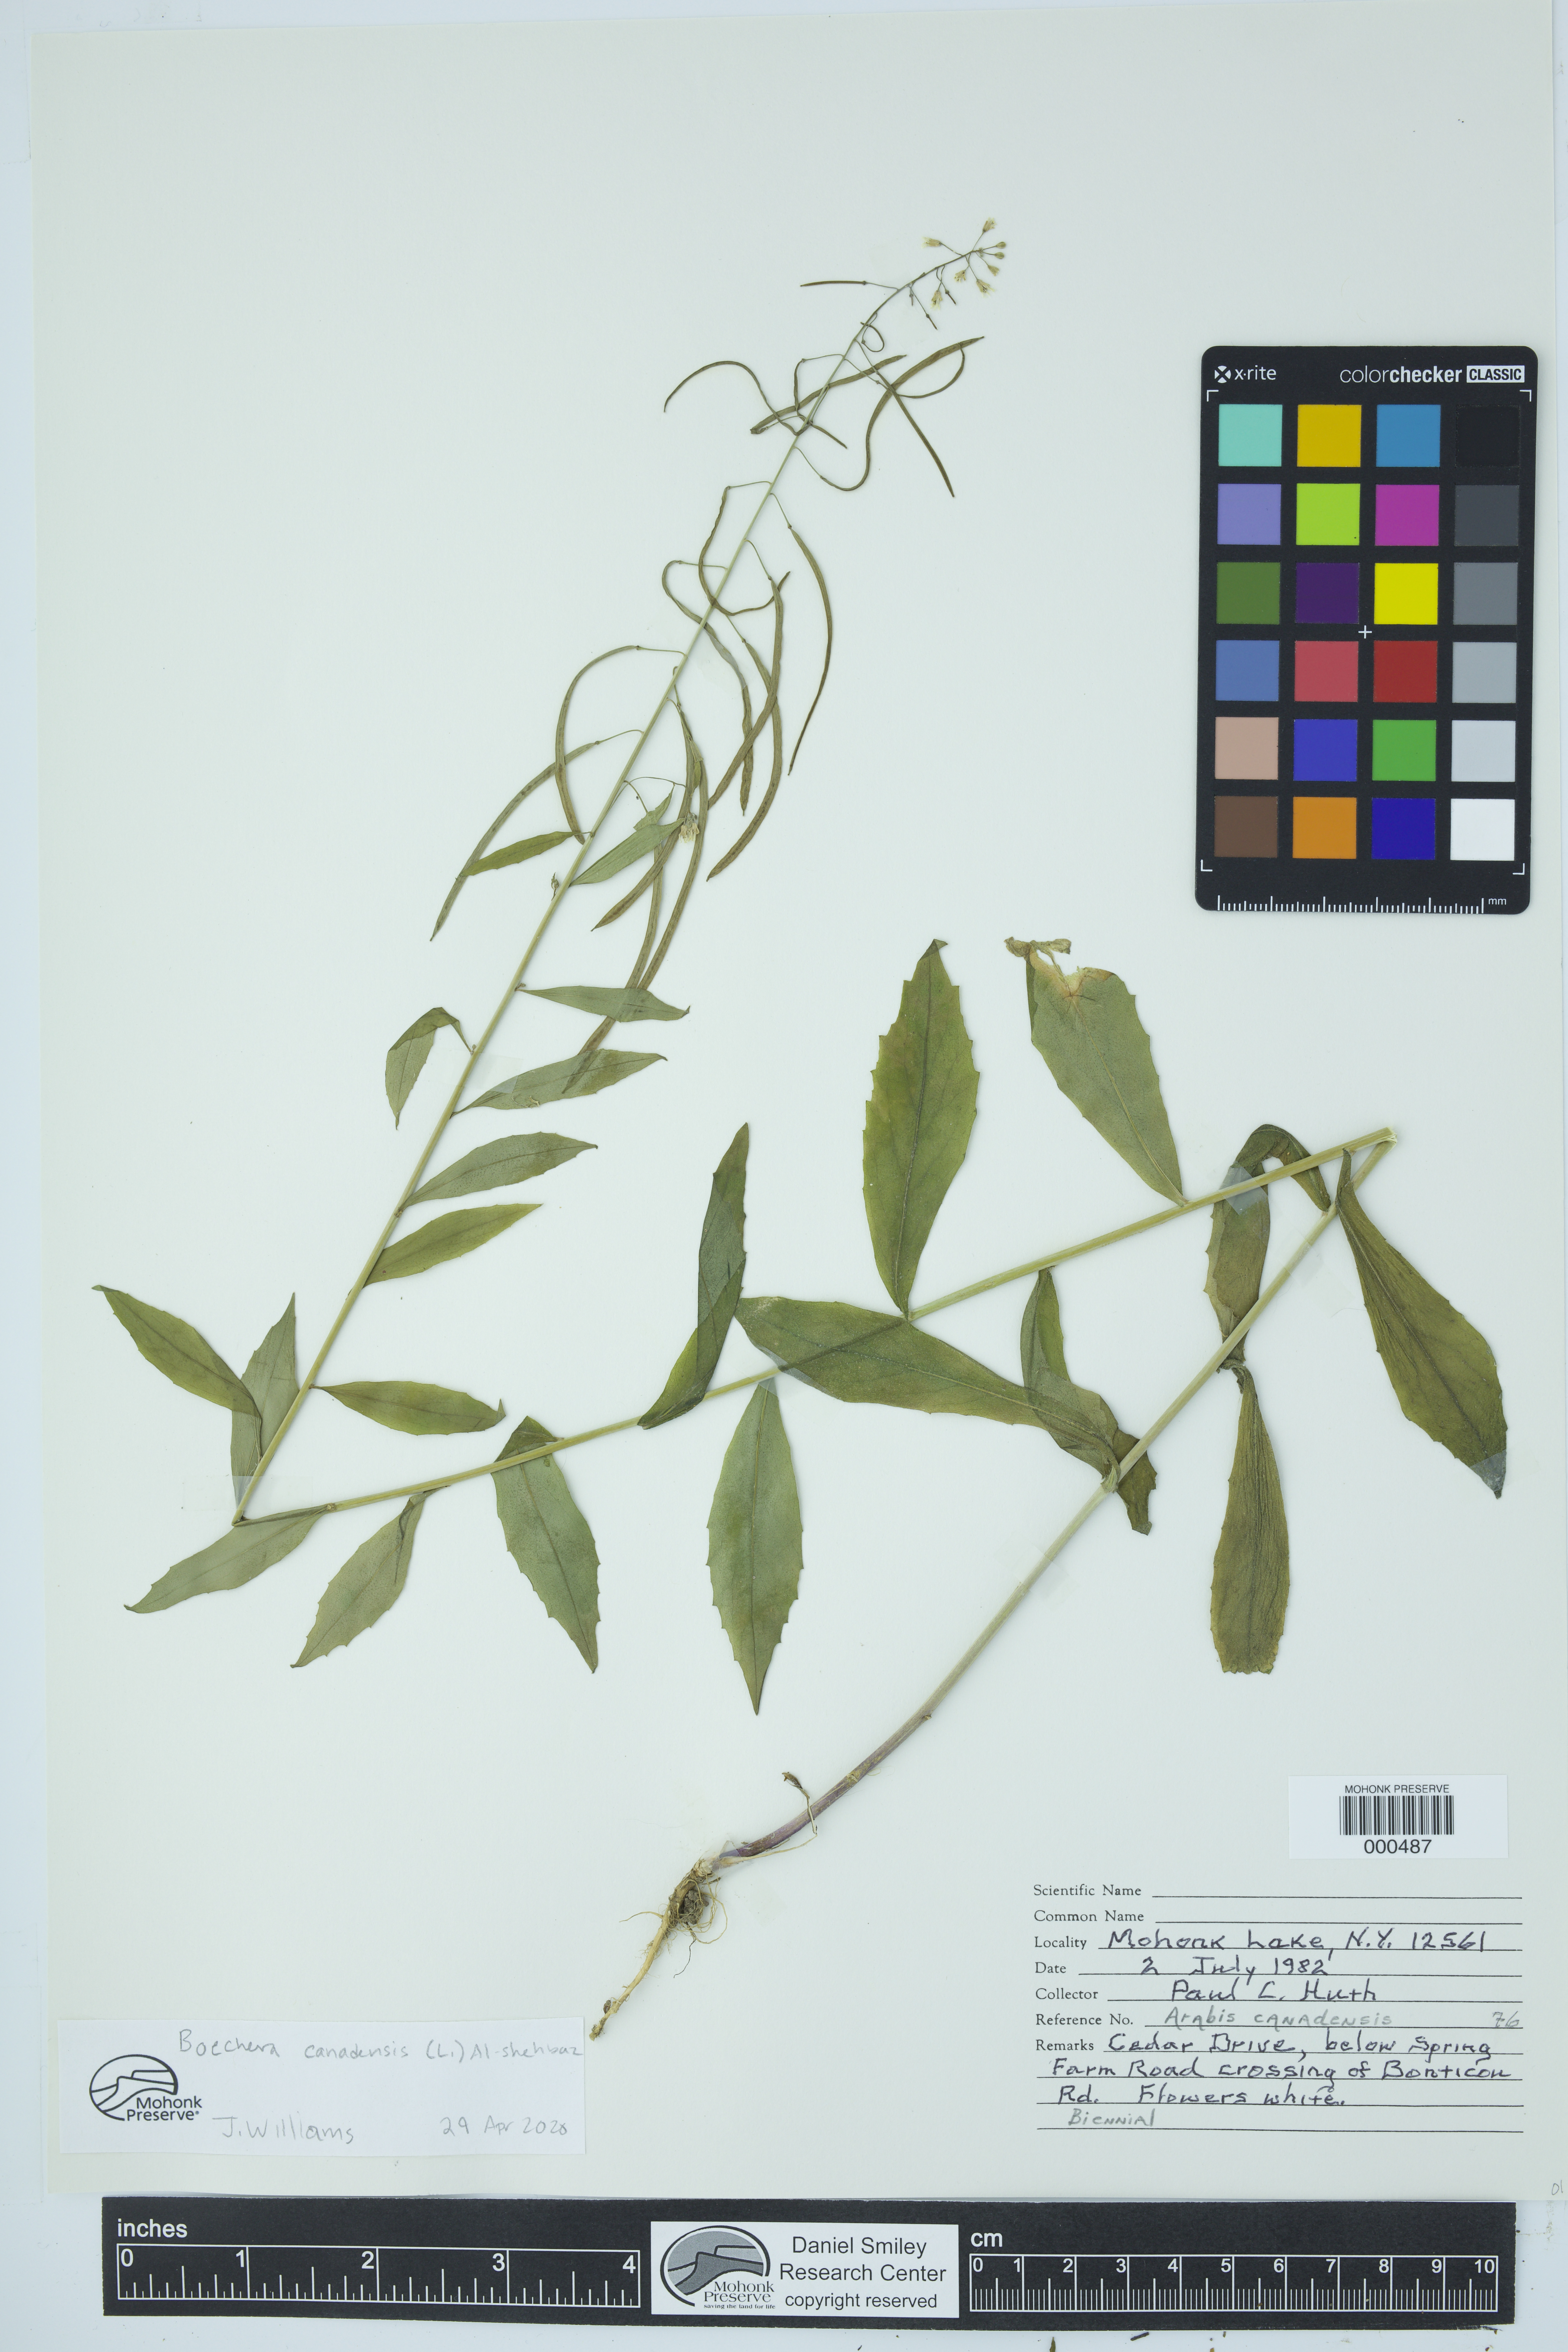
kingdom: Plantae
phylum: Tracheophyta
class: Magnoliopsida
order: Brassicales
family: Brassicaceae
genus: Borodinia
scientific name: Borodinia canadensis
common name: Sicklepod
